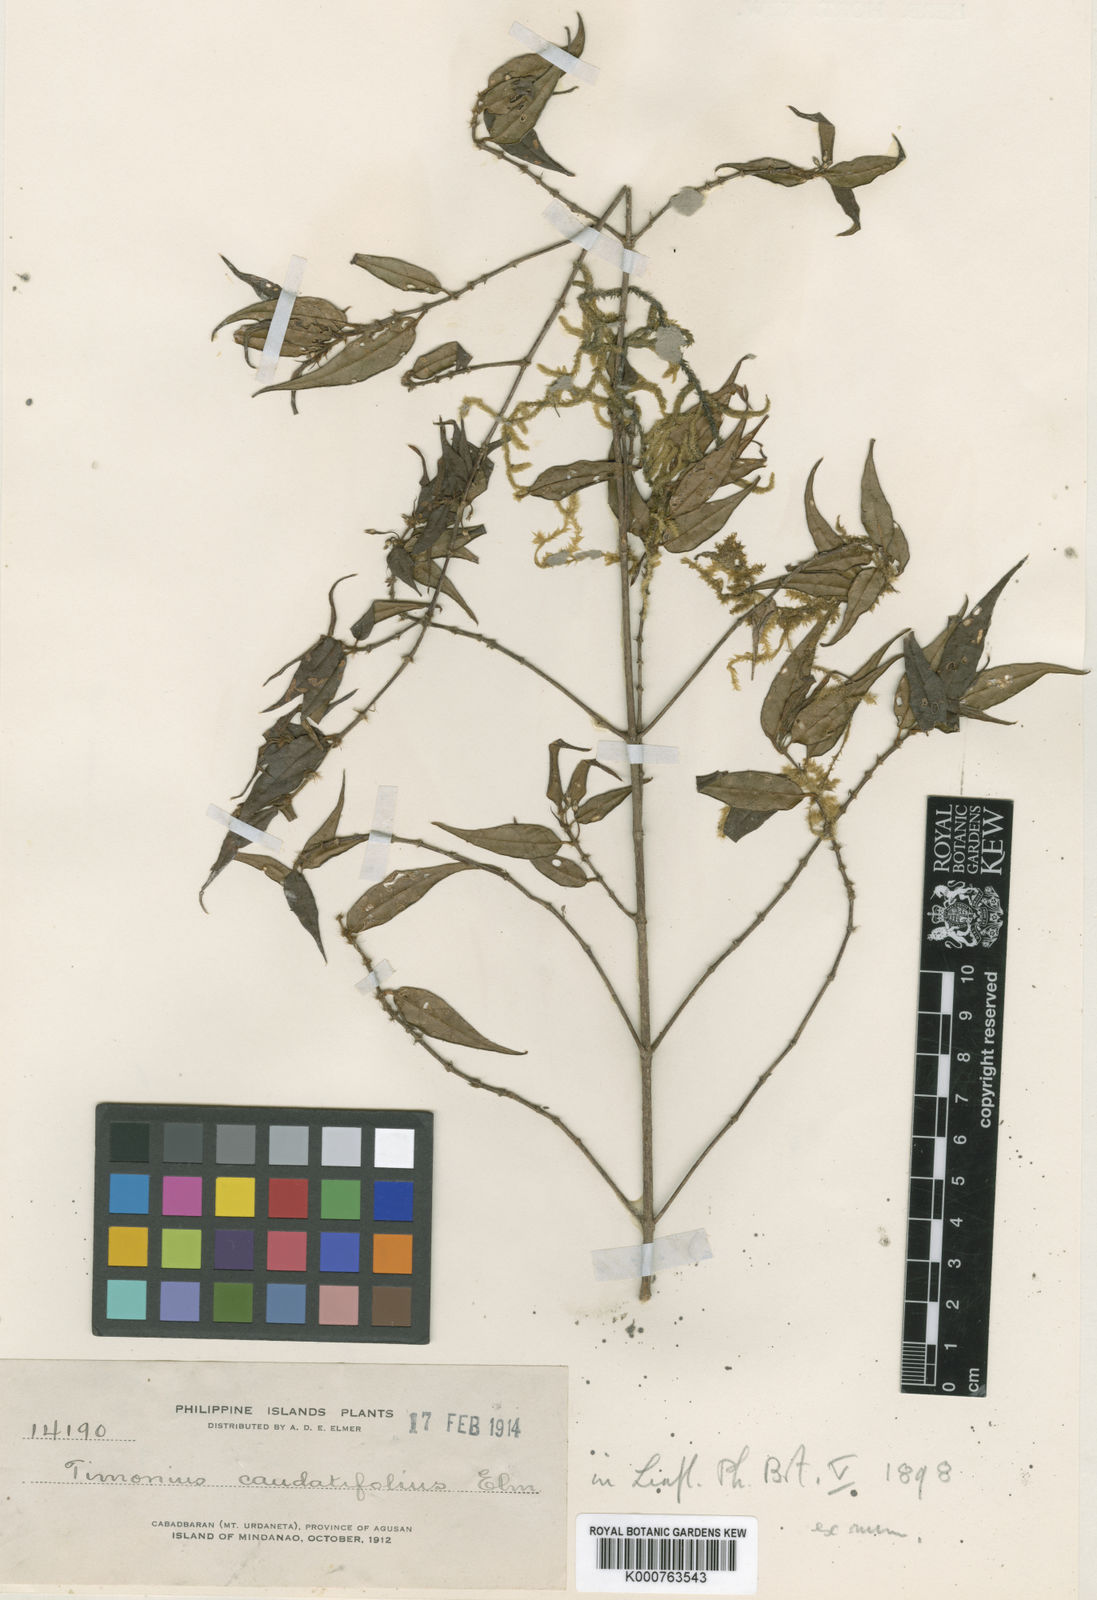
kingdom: Plantae
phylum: Tracheophyta
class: Magnoliopsida
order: Gentianales
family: Rubiaceae
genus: Timonius
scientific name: Timonius caudatifolius
